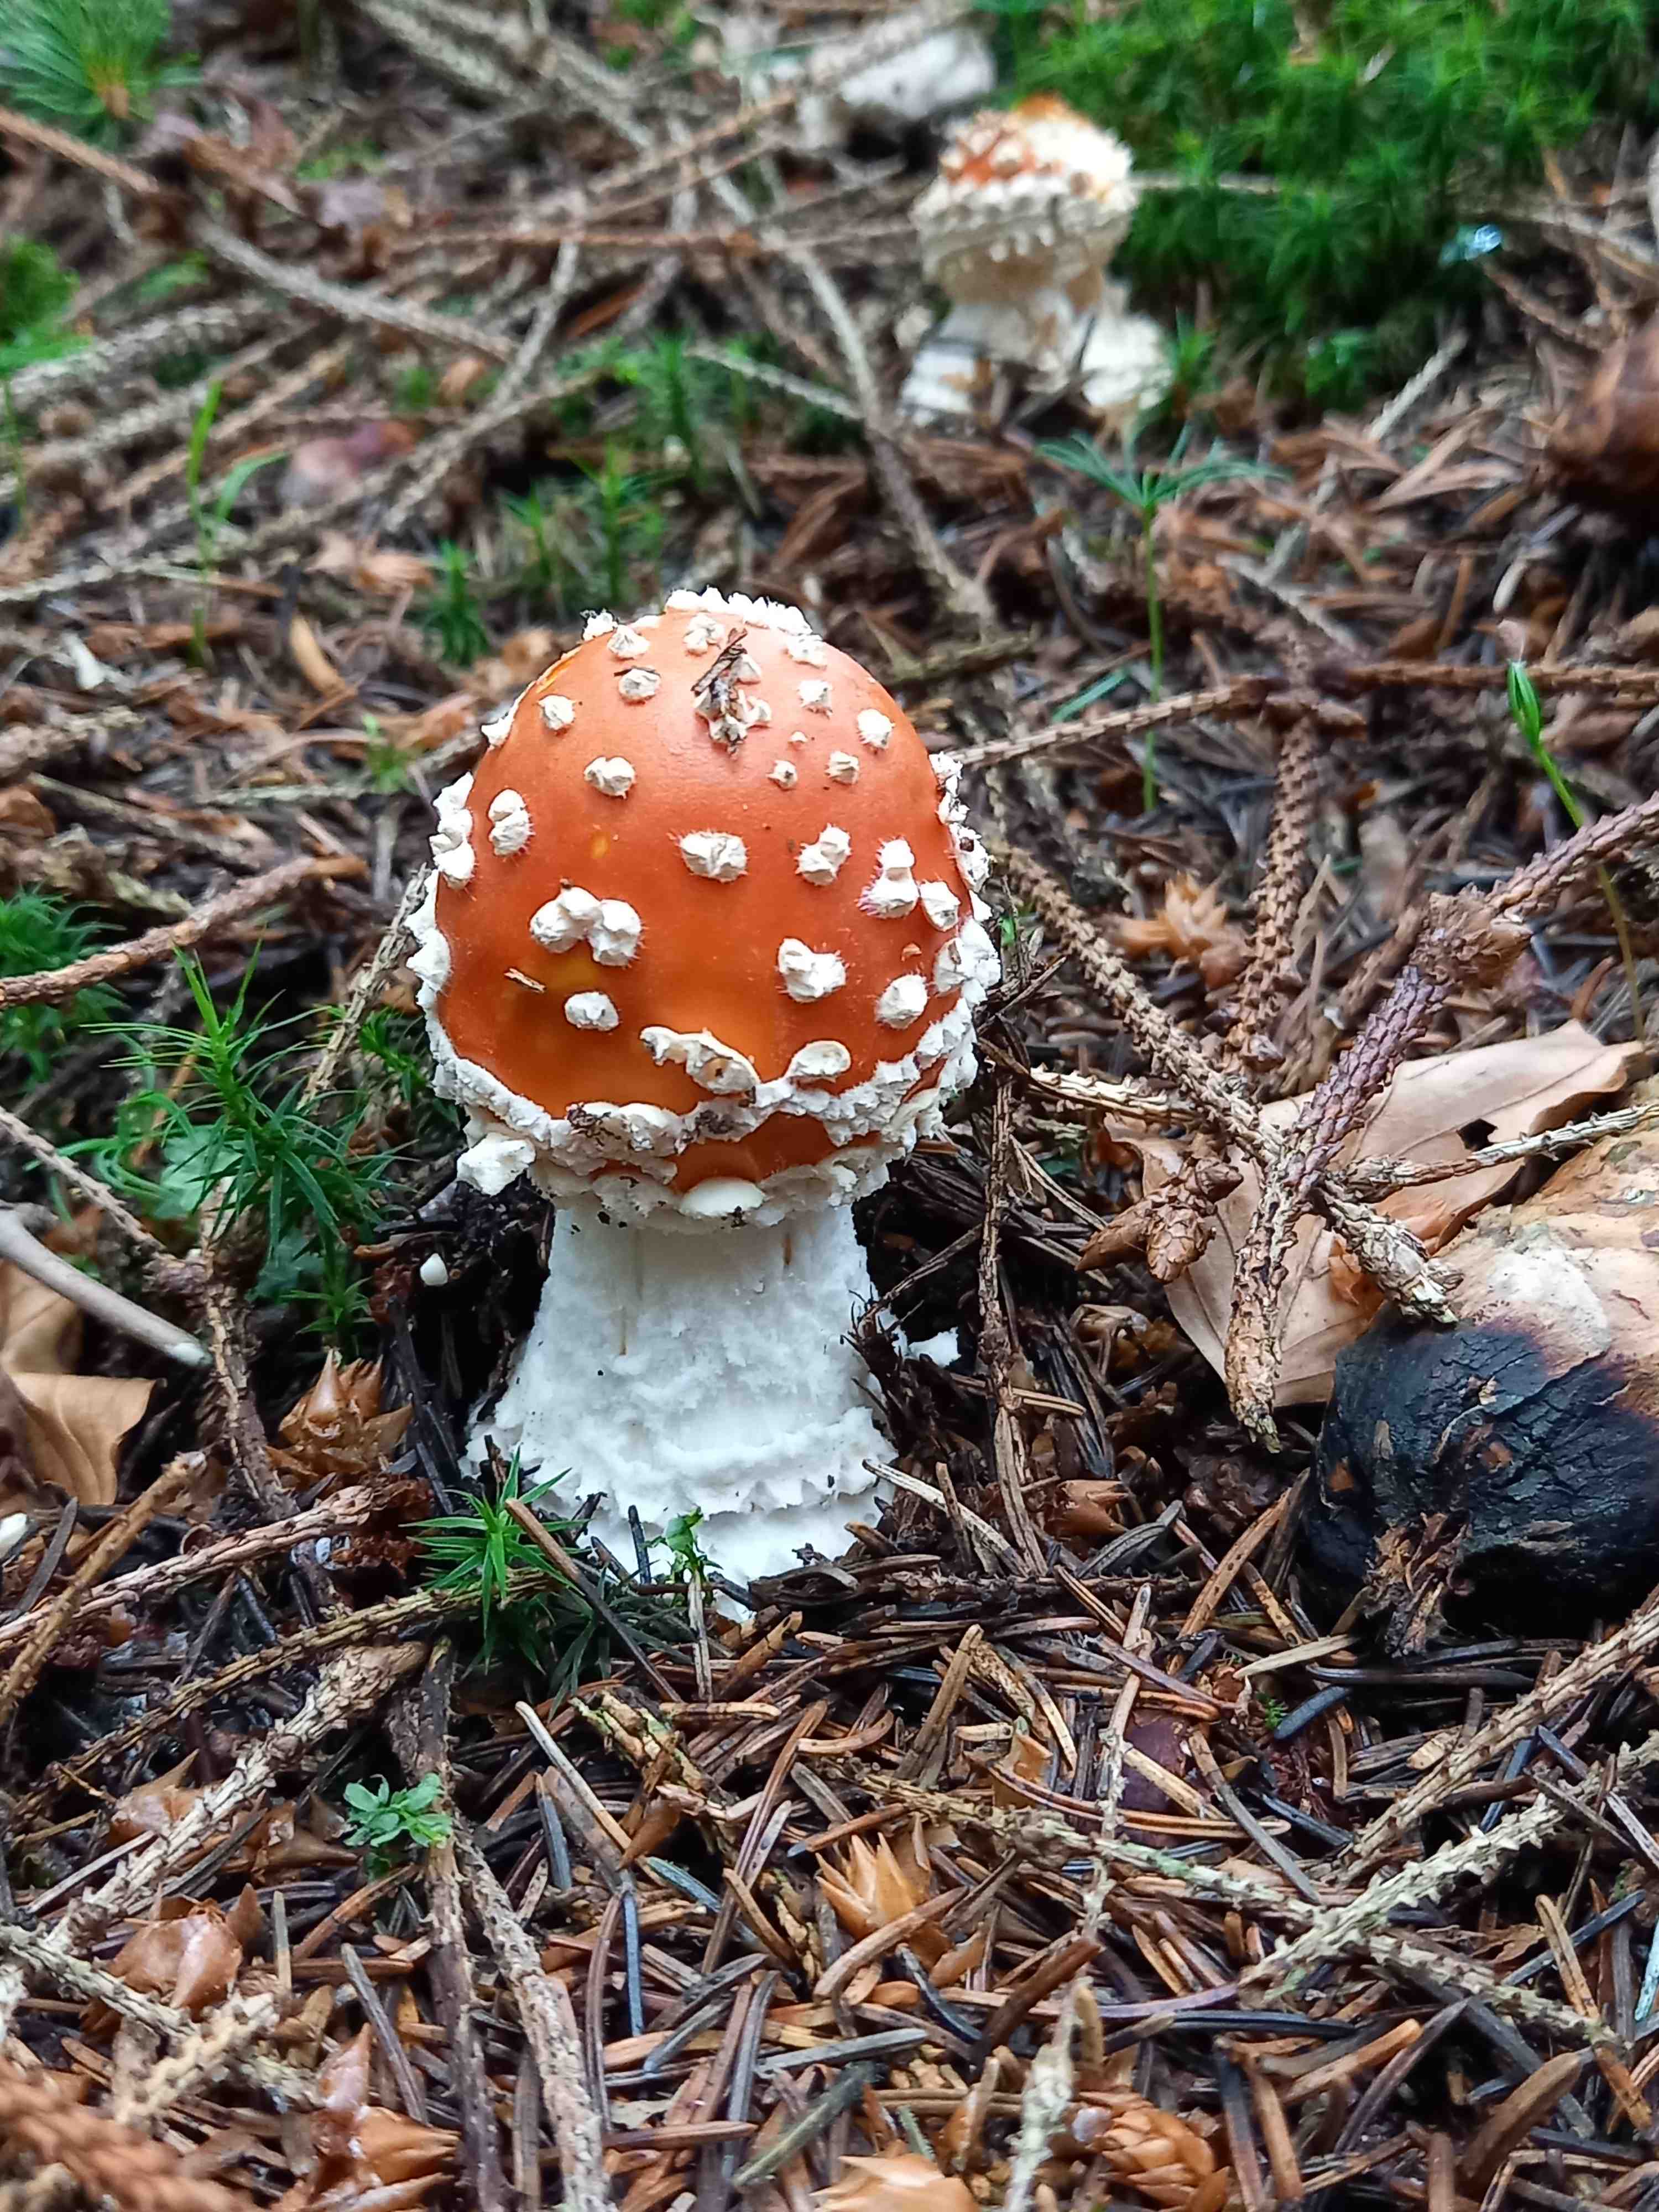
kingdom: Fungi
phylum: Basidiomycota
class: Agaricomycetes
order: Agaricales
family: Amanitaceae
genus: Amanita
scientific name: Amanita muscaria
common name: rød fluesvamp
